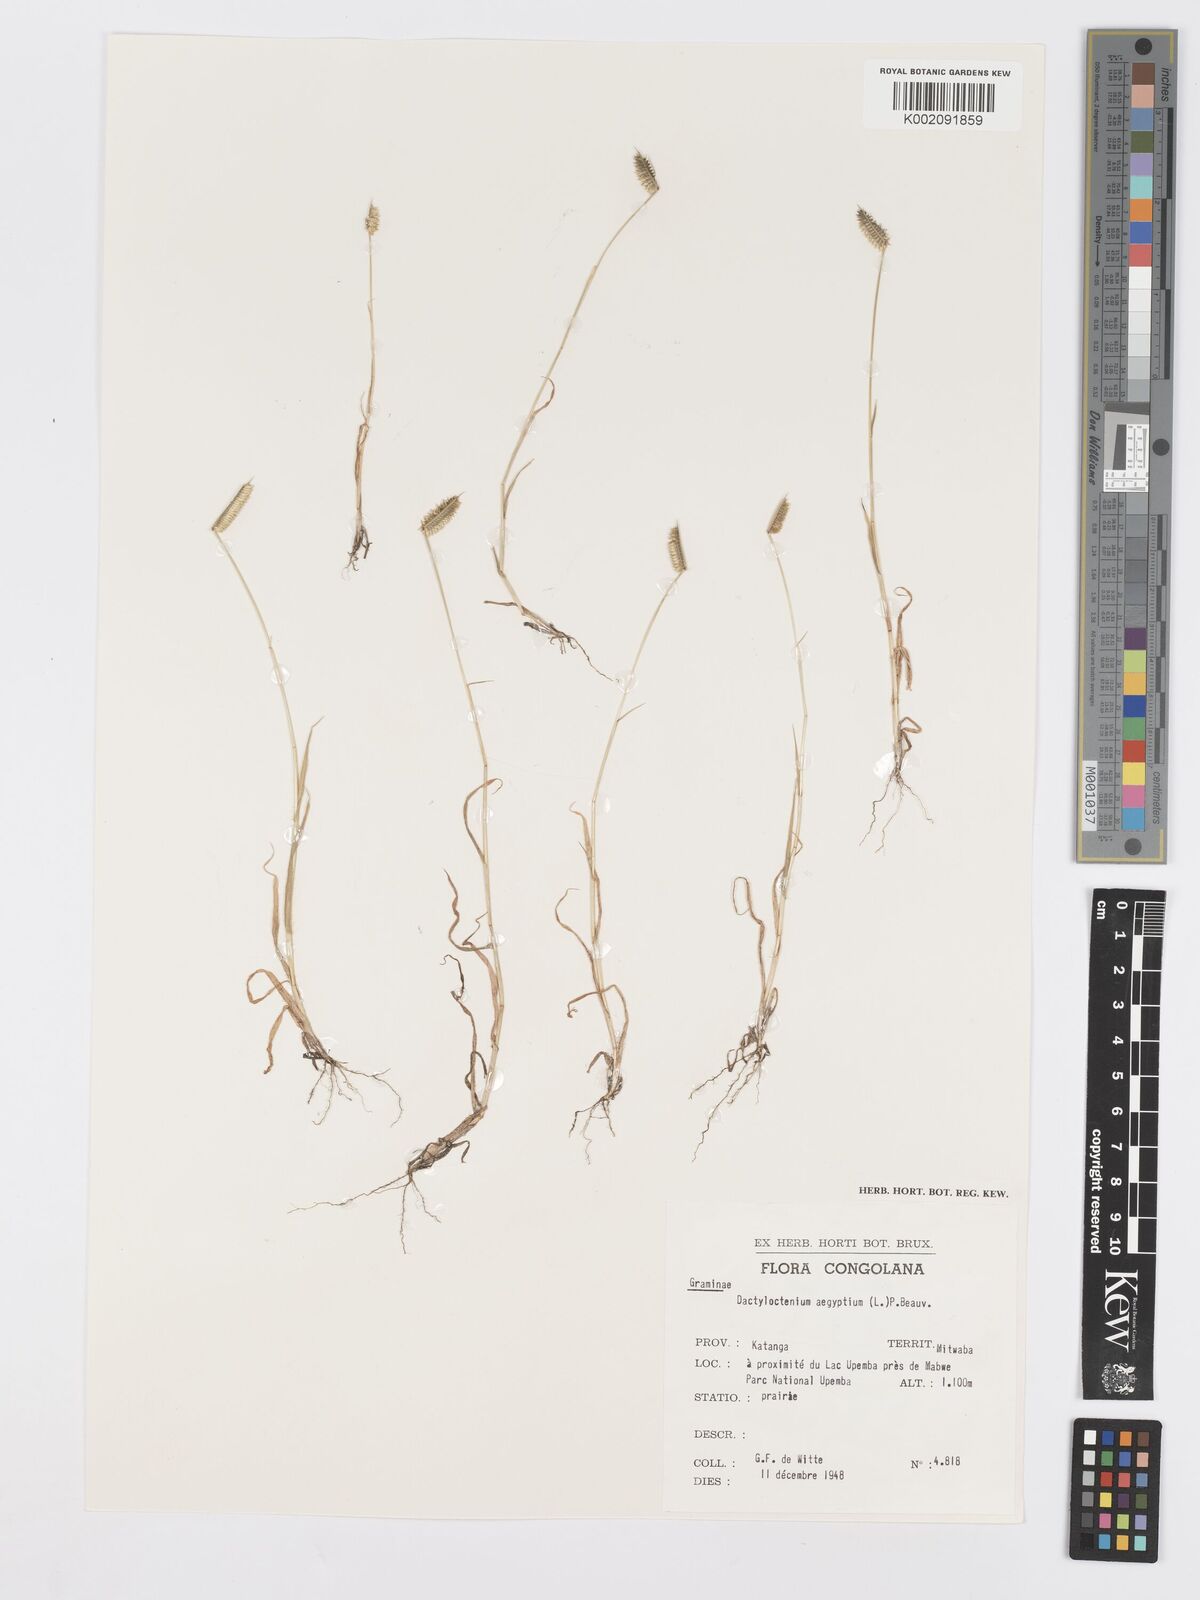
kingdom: Plantae
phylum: Tracheophyta
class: Liliopsida
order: Poales
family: Poaceae
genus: Dactyloctenium
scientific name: Dactyloctenium aegyptium
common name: Egyptian grass
